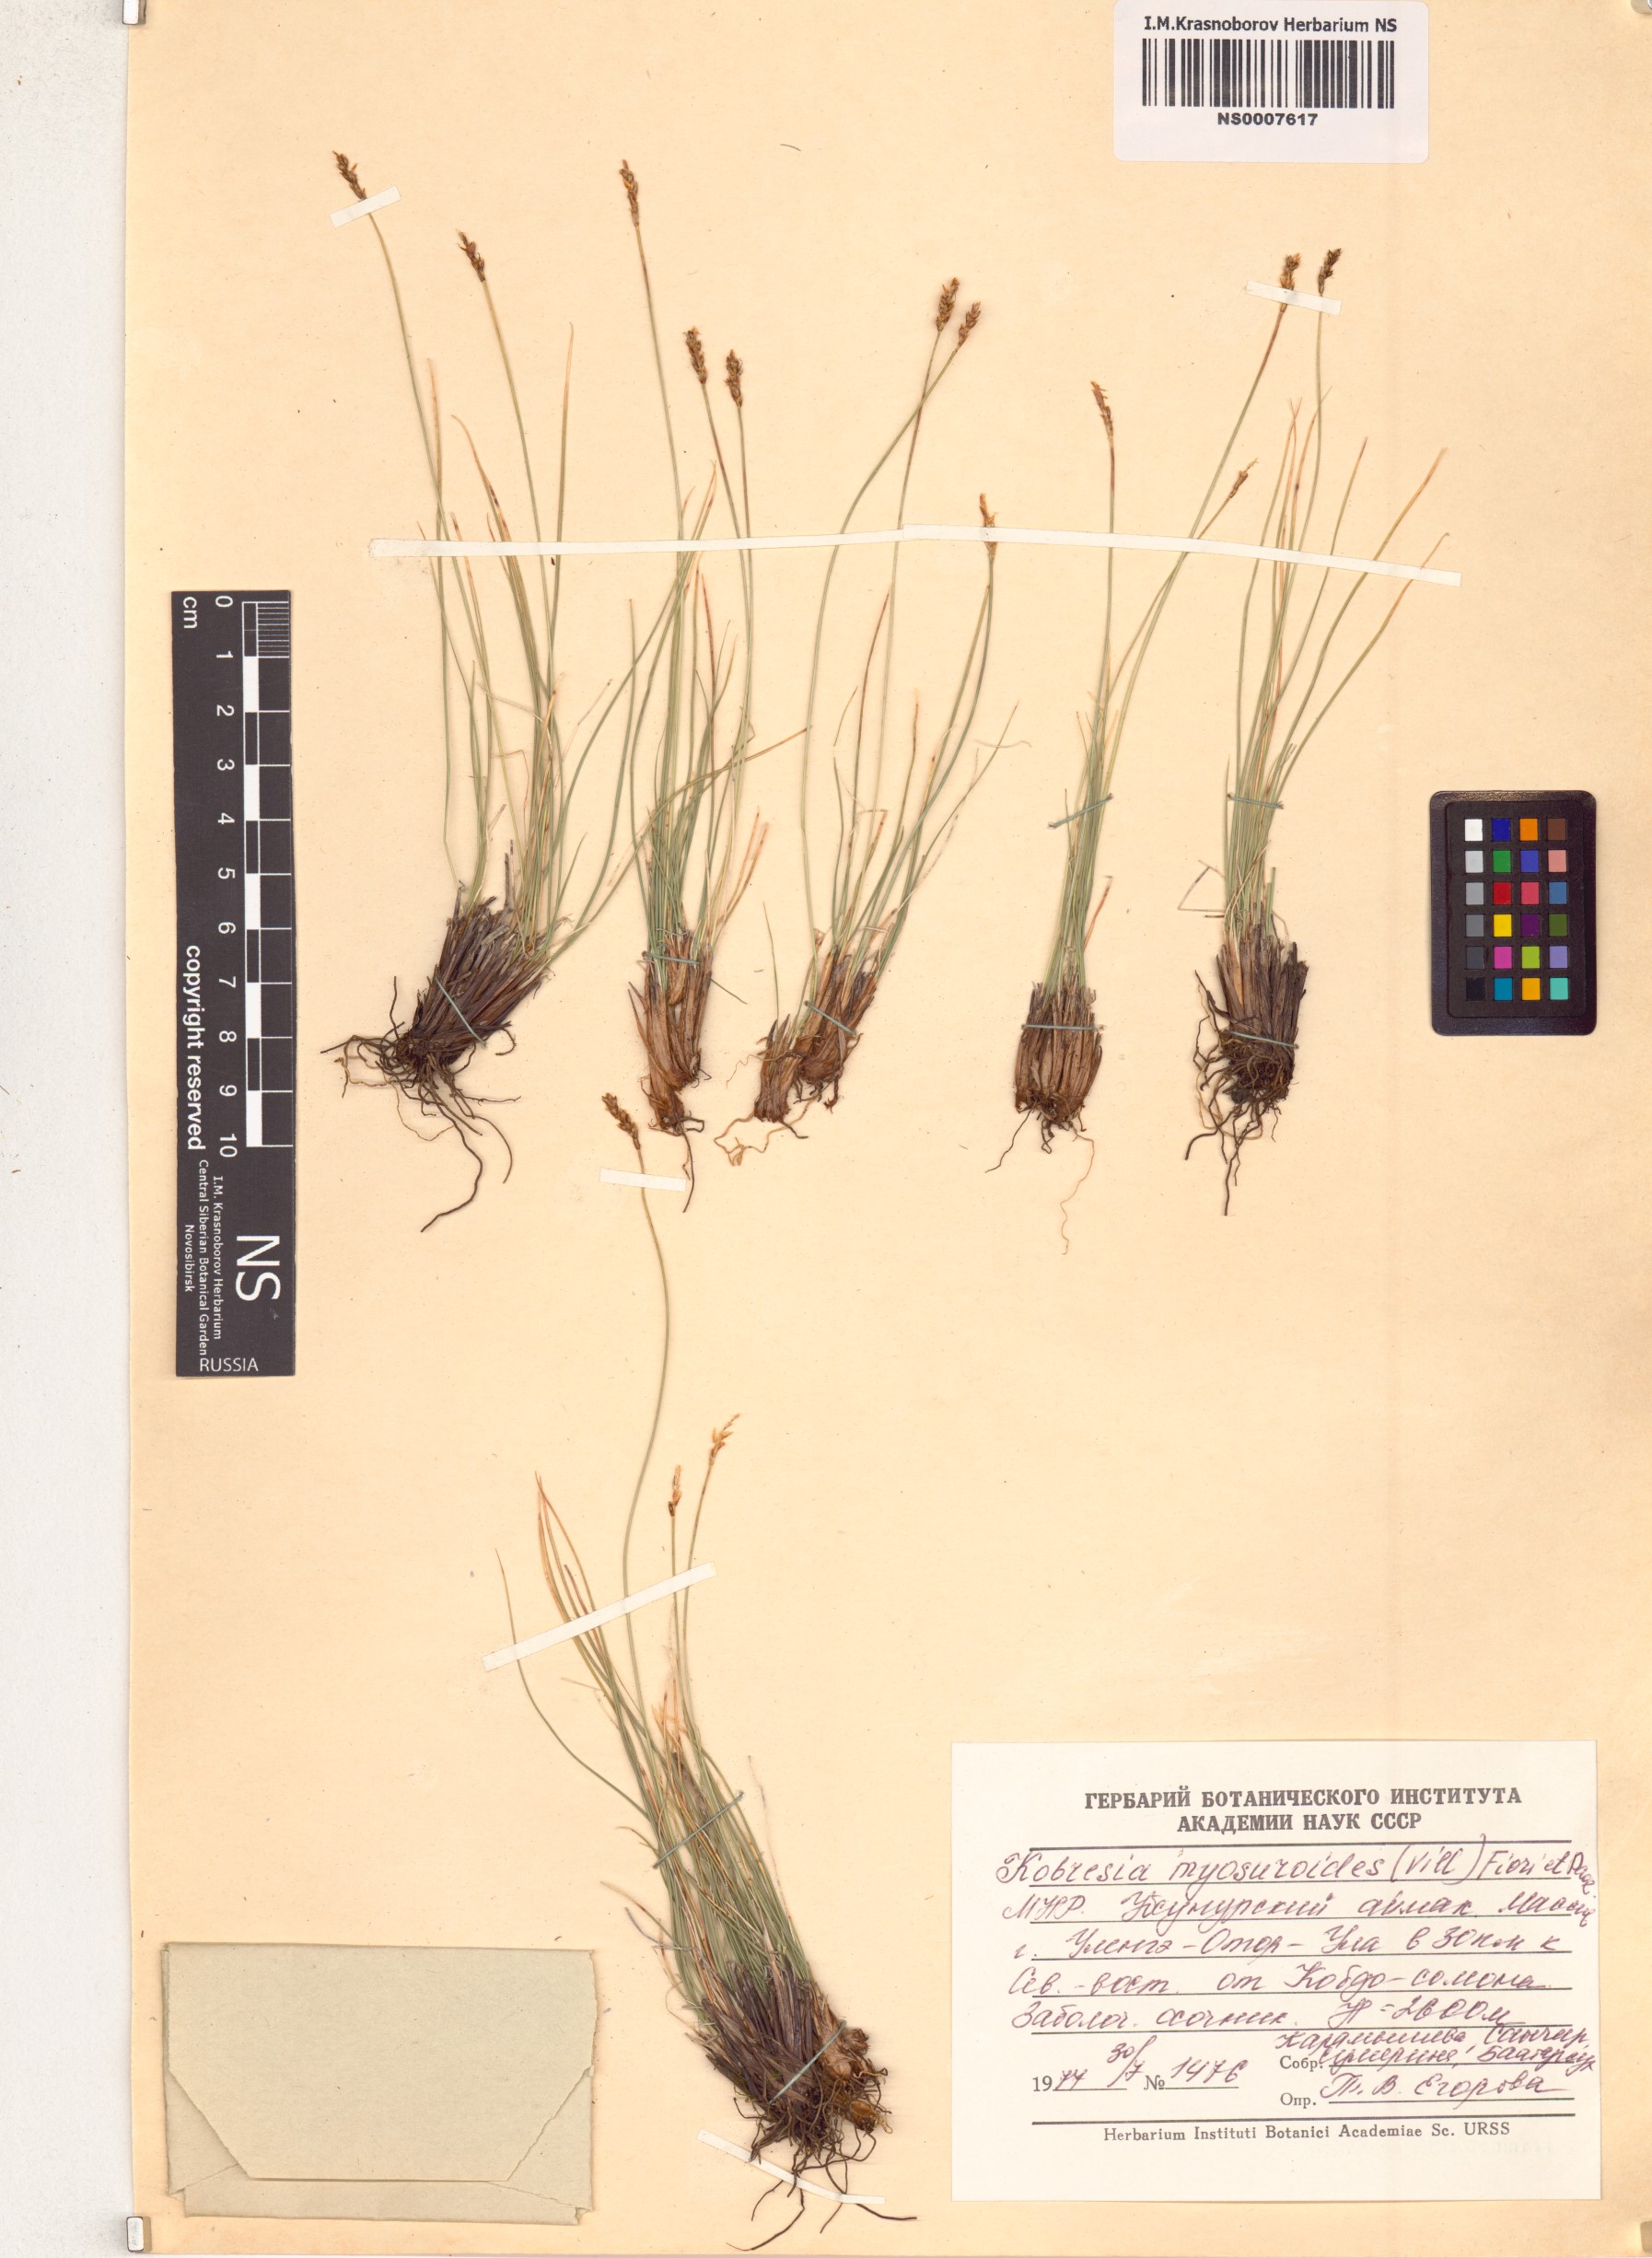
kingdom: Plantae
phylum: Tracheophyta
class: Liliopsida
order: Poales
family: Cyperaceae
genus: Carex
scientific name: Carex myosuroides
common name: Bellard's bog sedge
